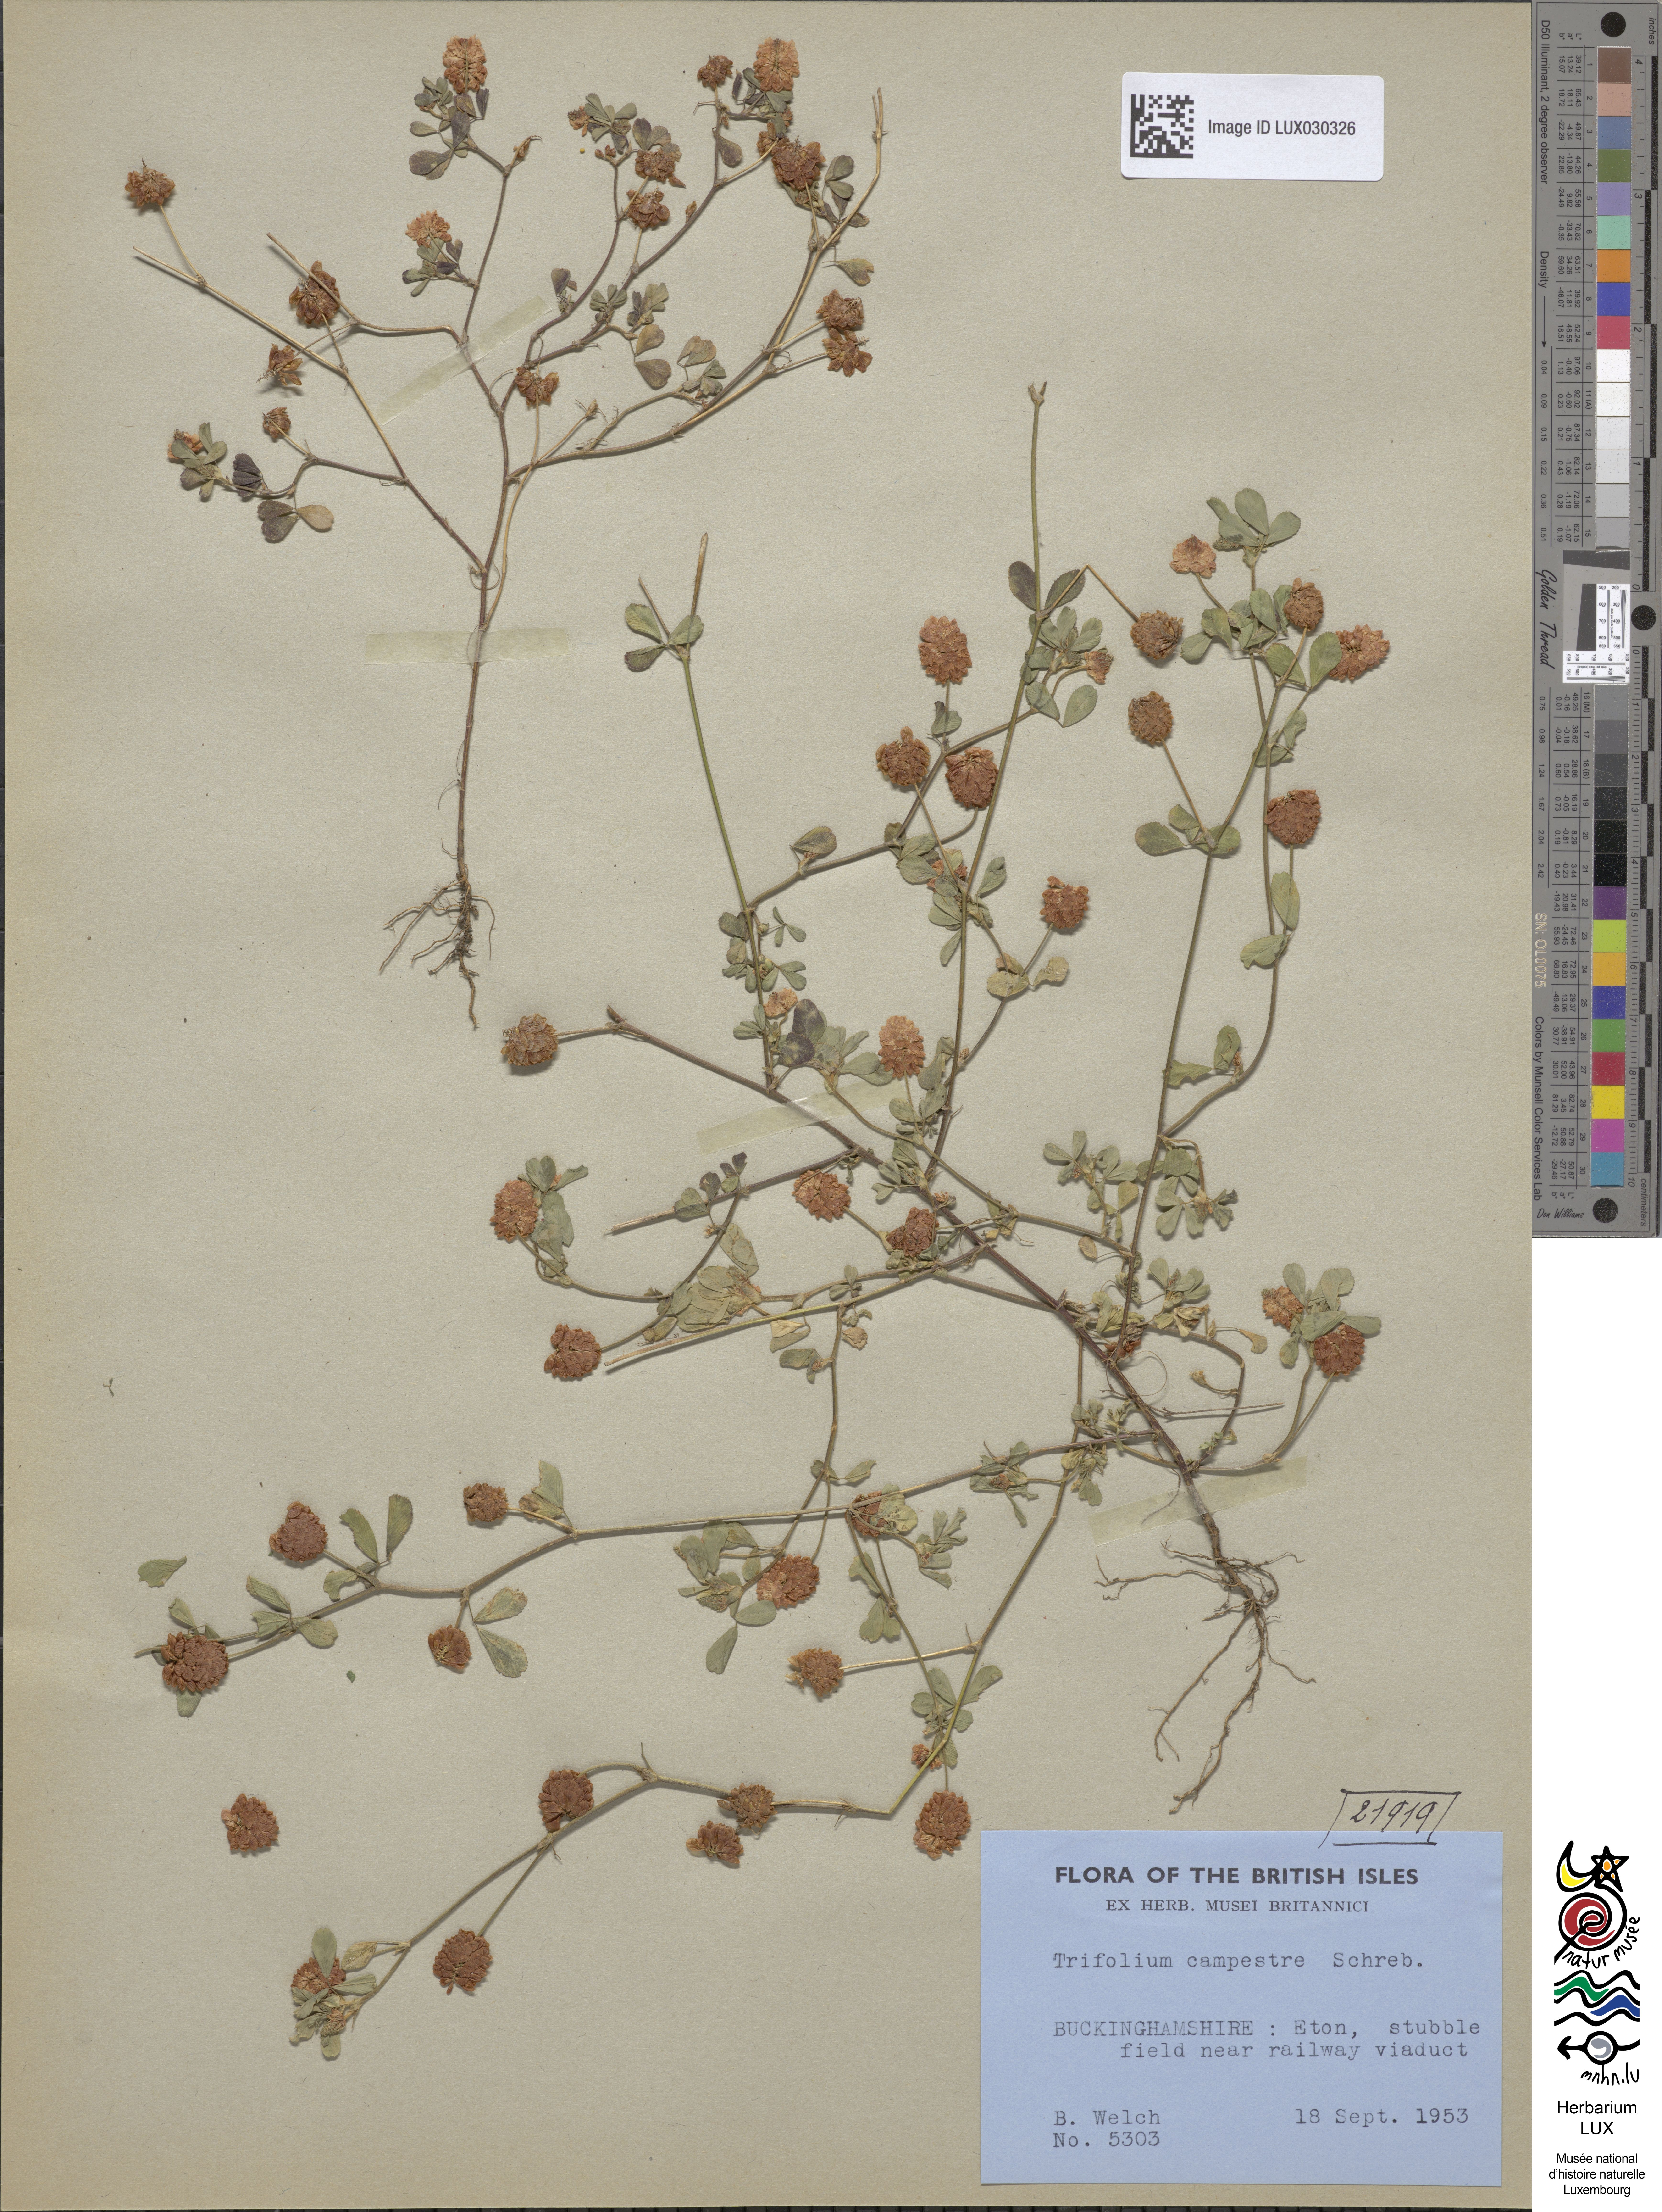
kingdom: Plantae
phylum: Tracheophyta
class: Magnoliopsida
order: Fabales
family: Fabaceae
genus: Trifolium
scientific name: Trifolium campestre
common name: Field clover
